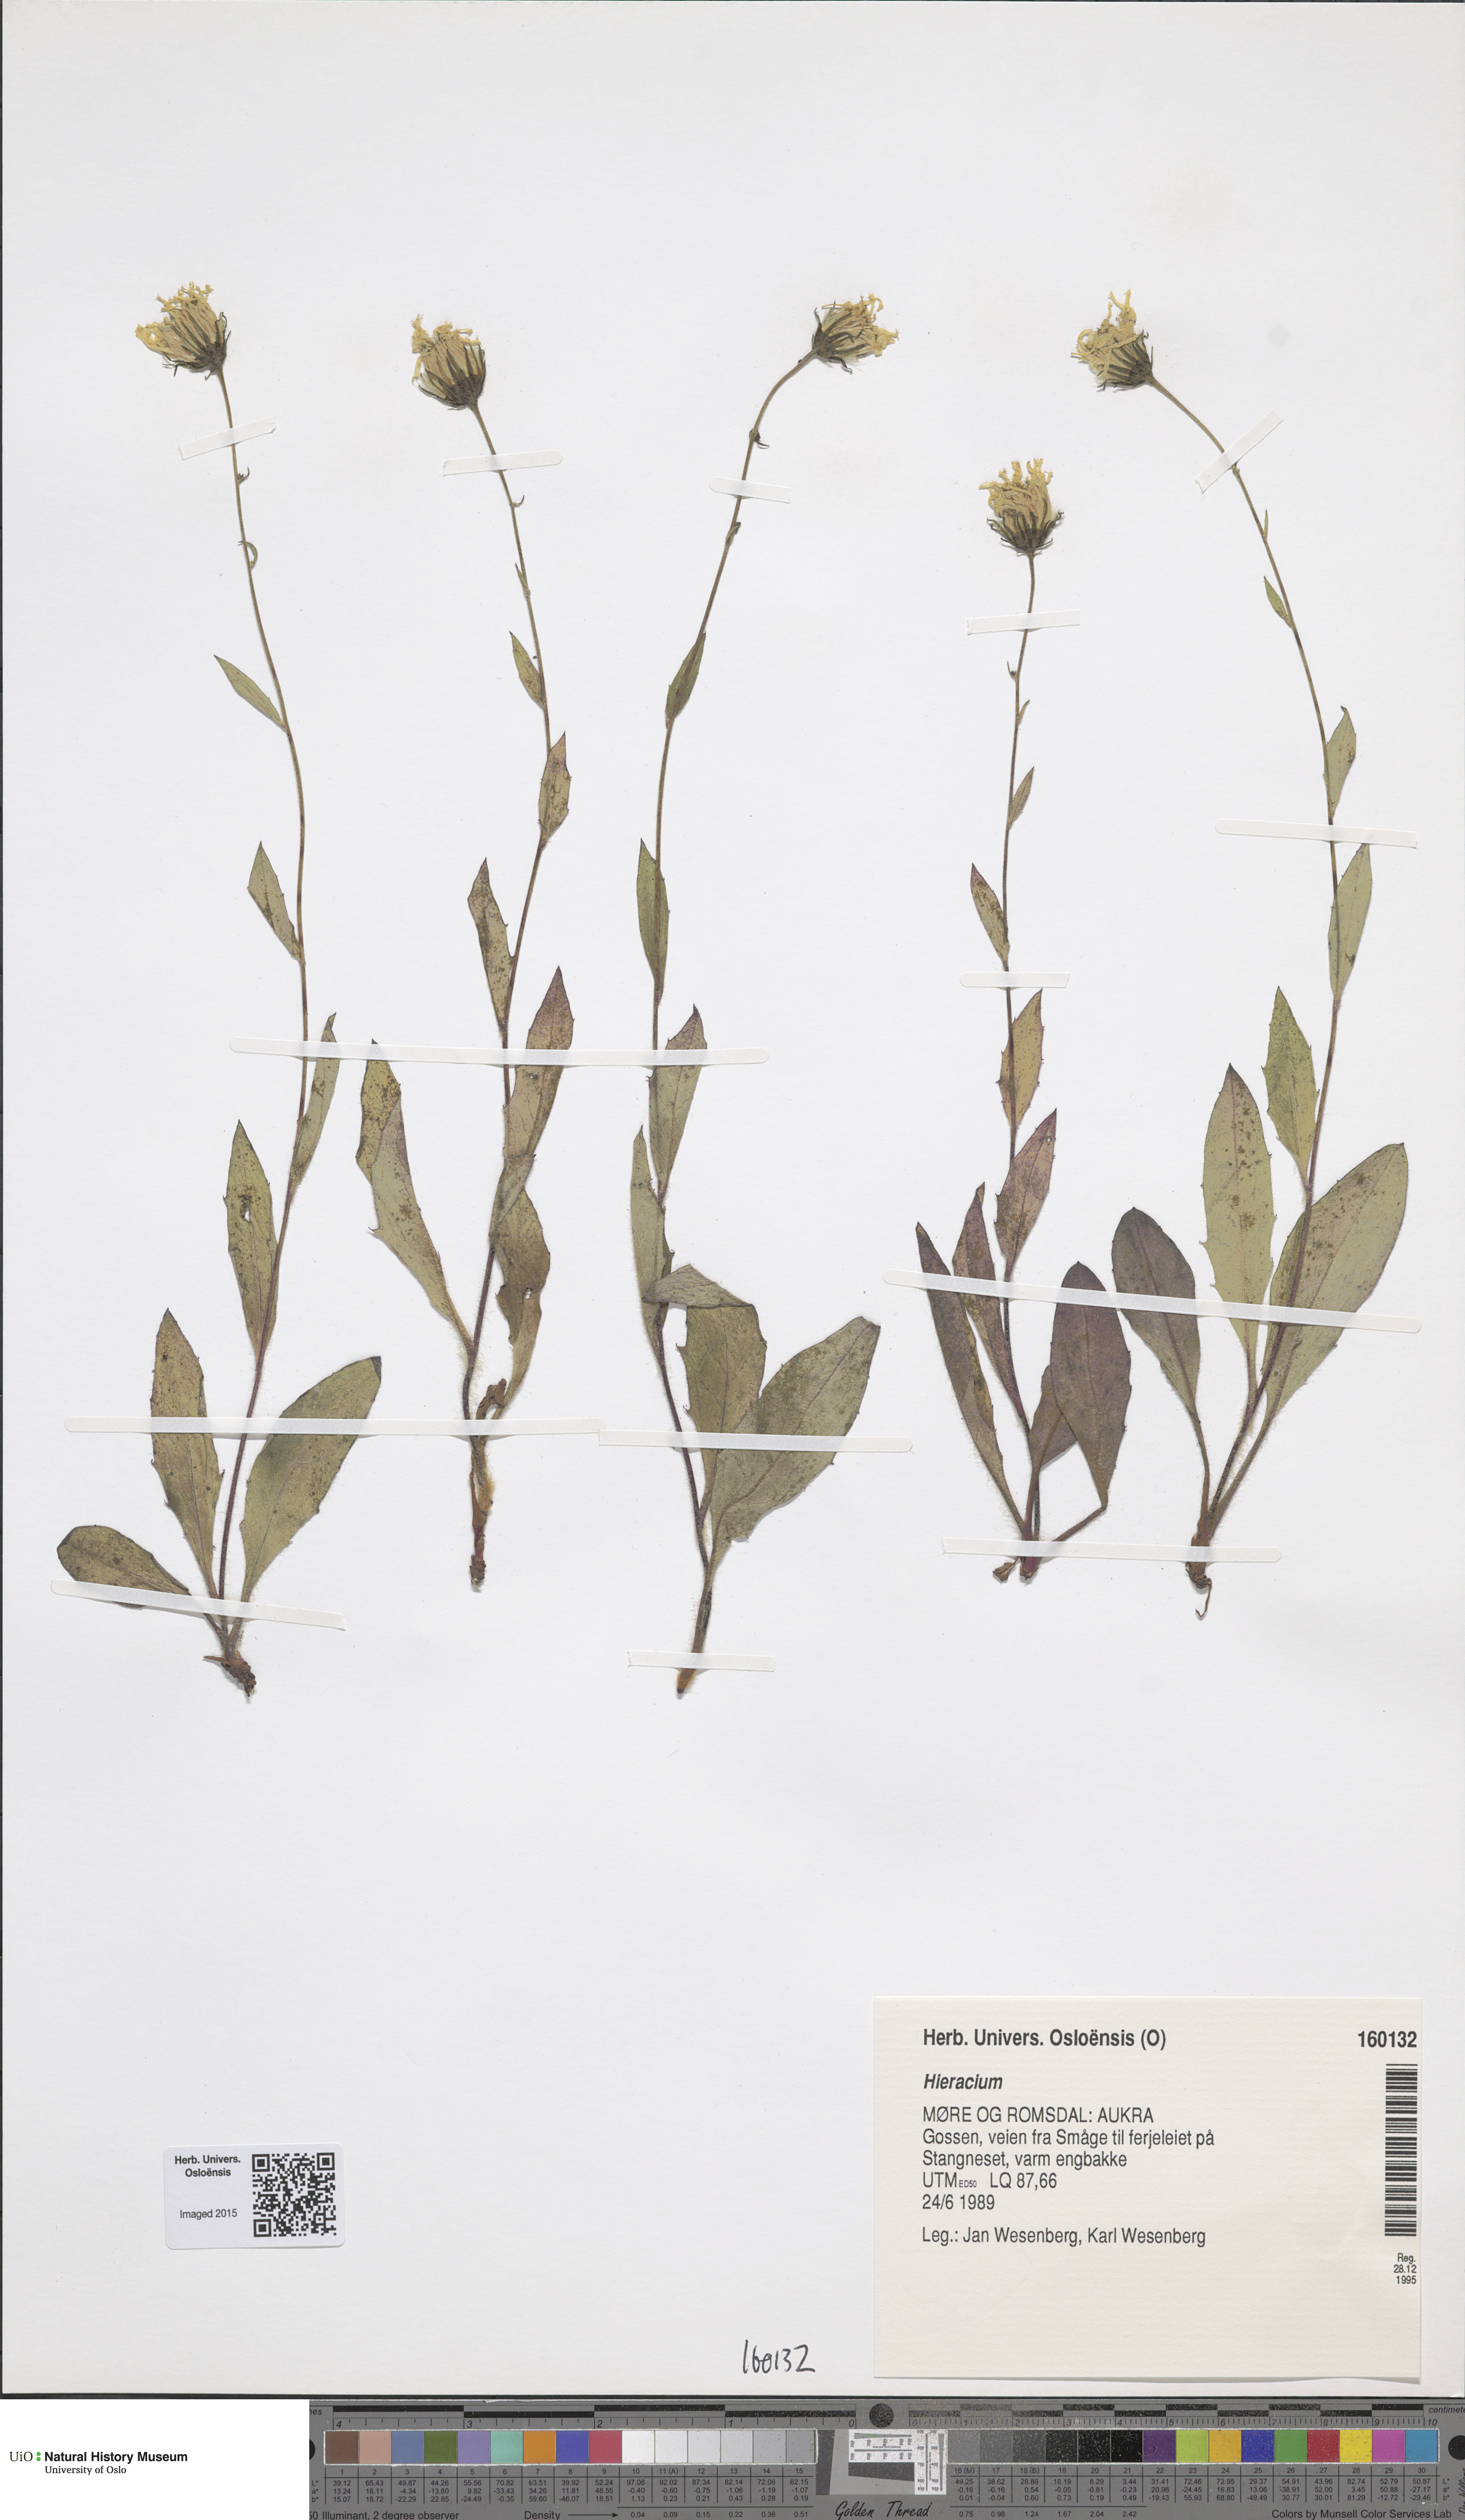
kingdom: Plantae
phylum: Tracheophyta
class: Magnoliopsida
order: Asterales
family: Asteraceae
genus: Hieracium
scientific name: Hieracium
